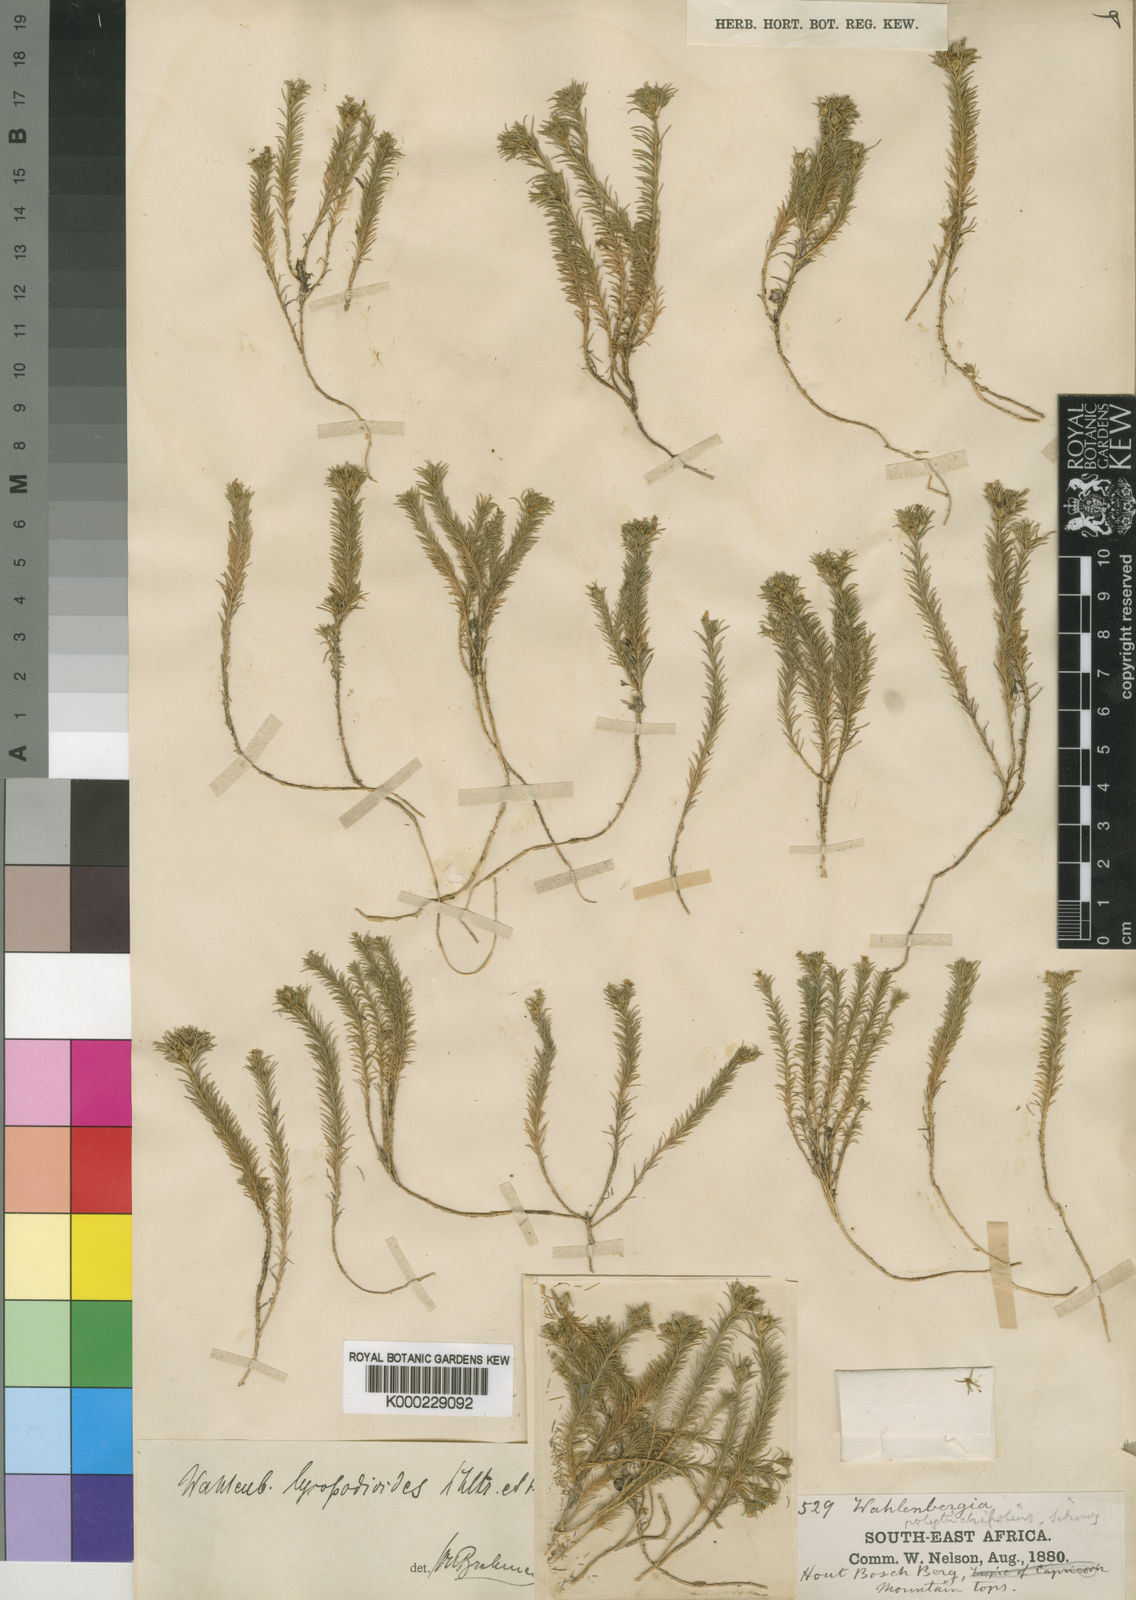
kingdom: Plantae
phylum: Tracheophyta
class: Magnoliopsida
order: Asterales
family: Campanulaceae
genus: Wahlenbergia
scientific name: Wahlenbergia lycopodioides
